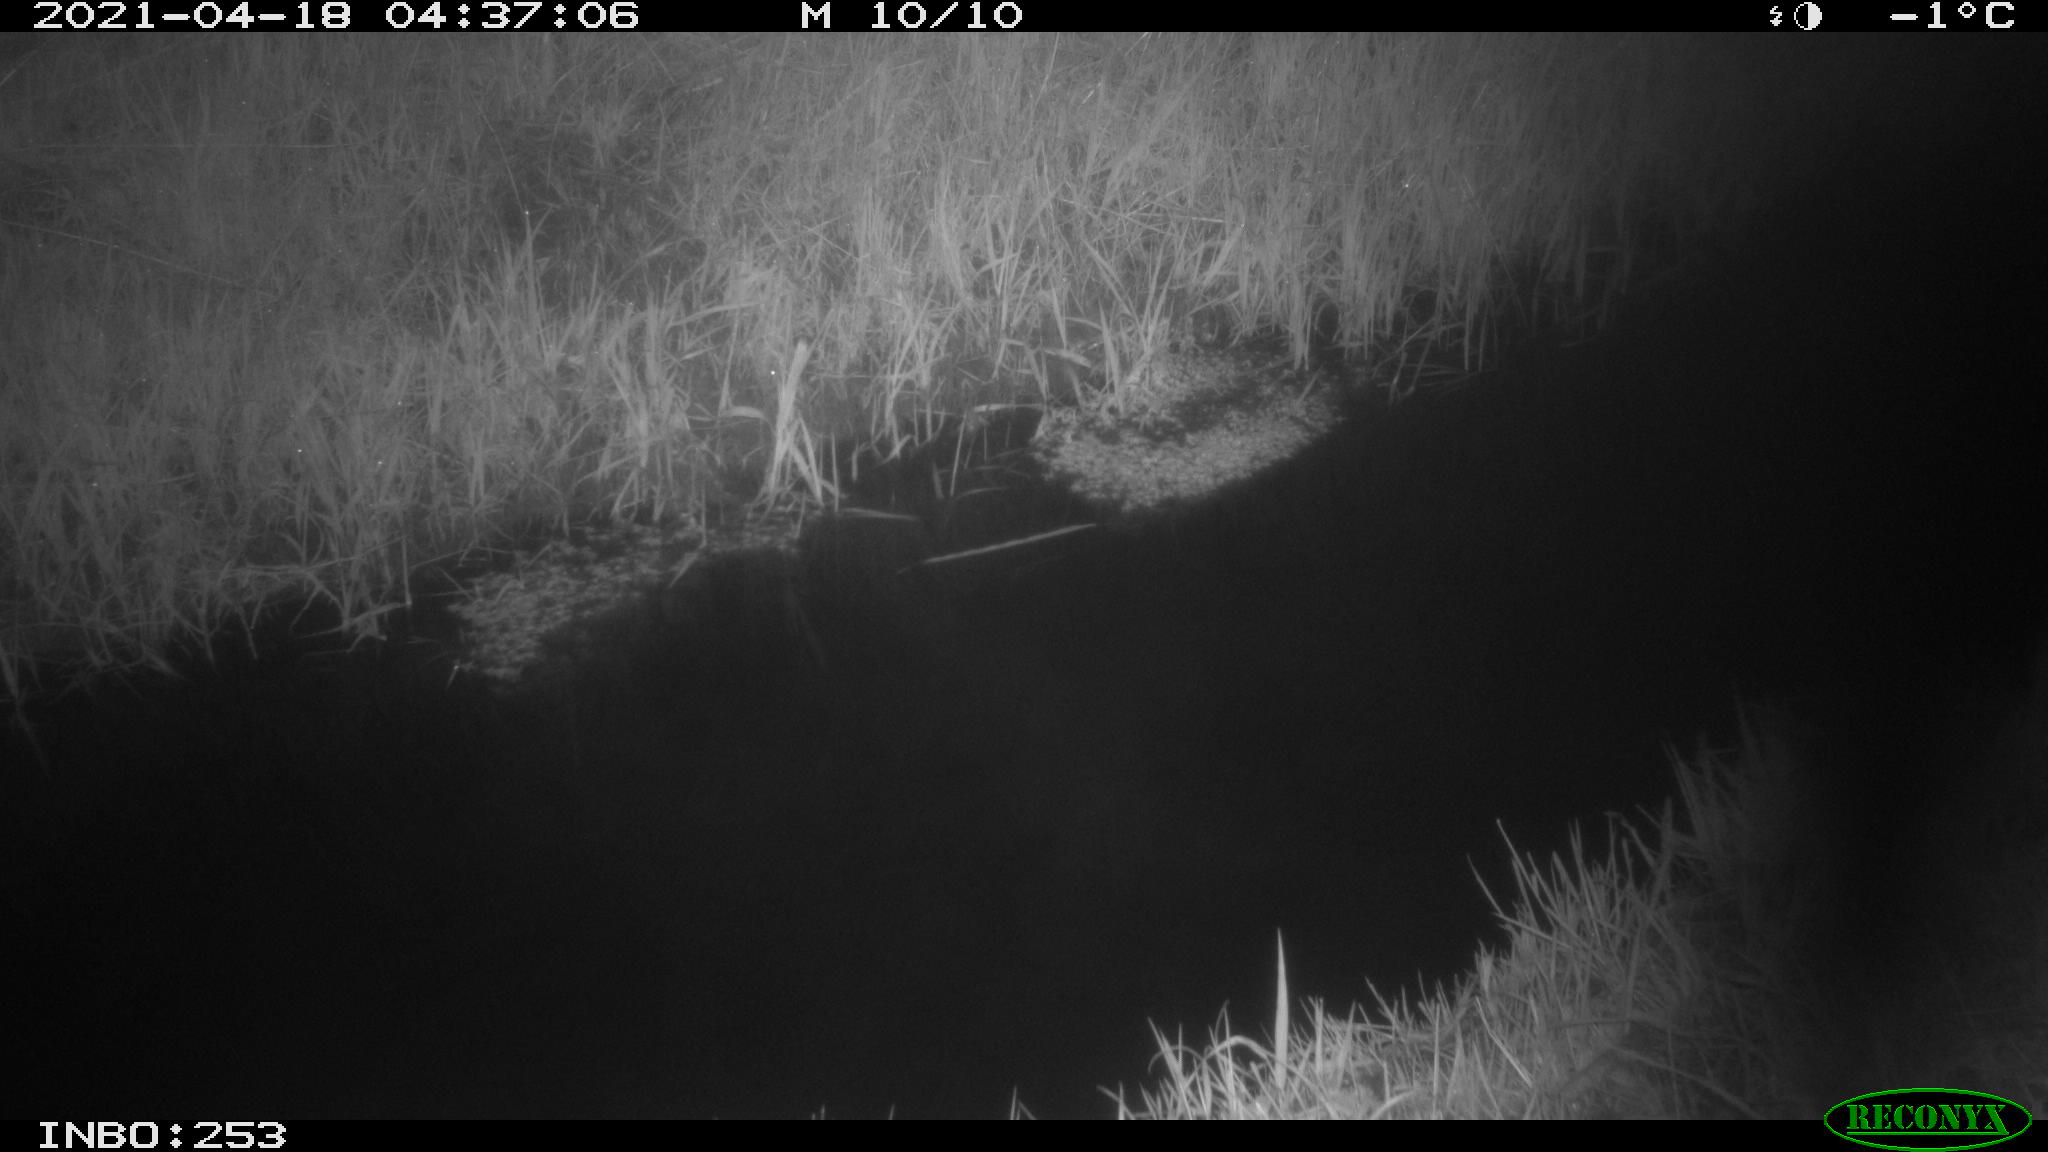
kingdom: Animalia
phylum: Chordata
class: Aves
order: Anseriformes
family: Anatidae
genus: Anas
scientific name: Anas platyrhynchos
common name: Mallard
